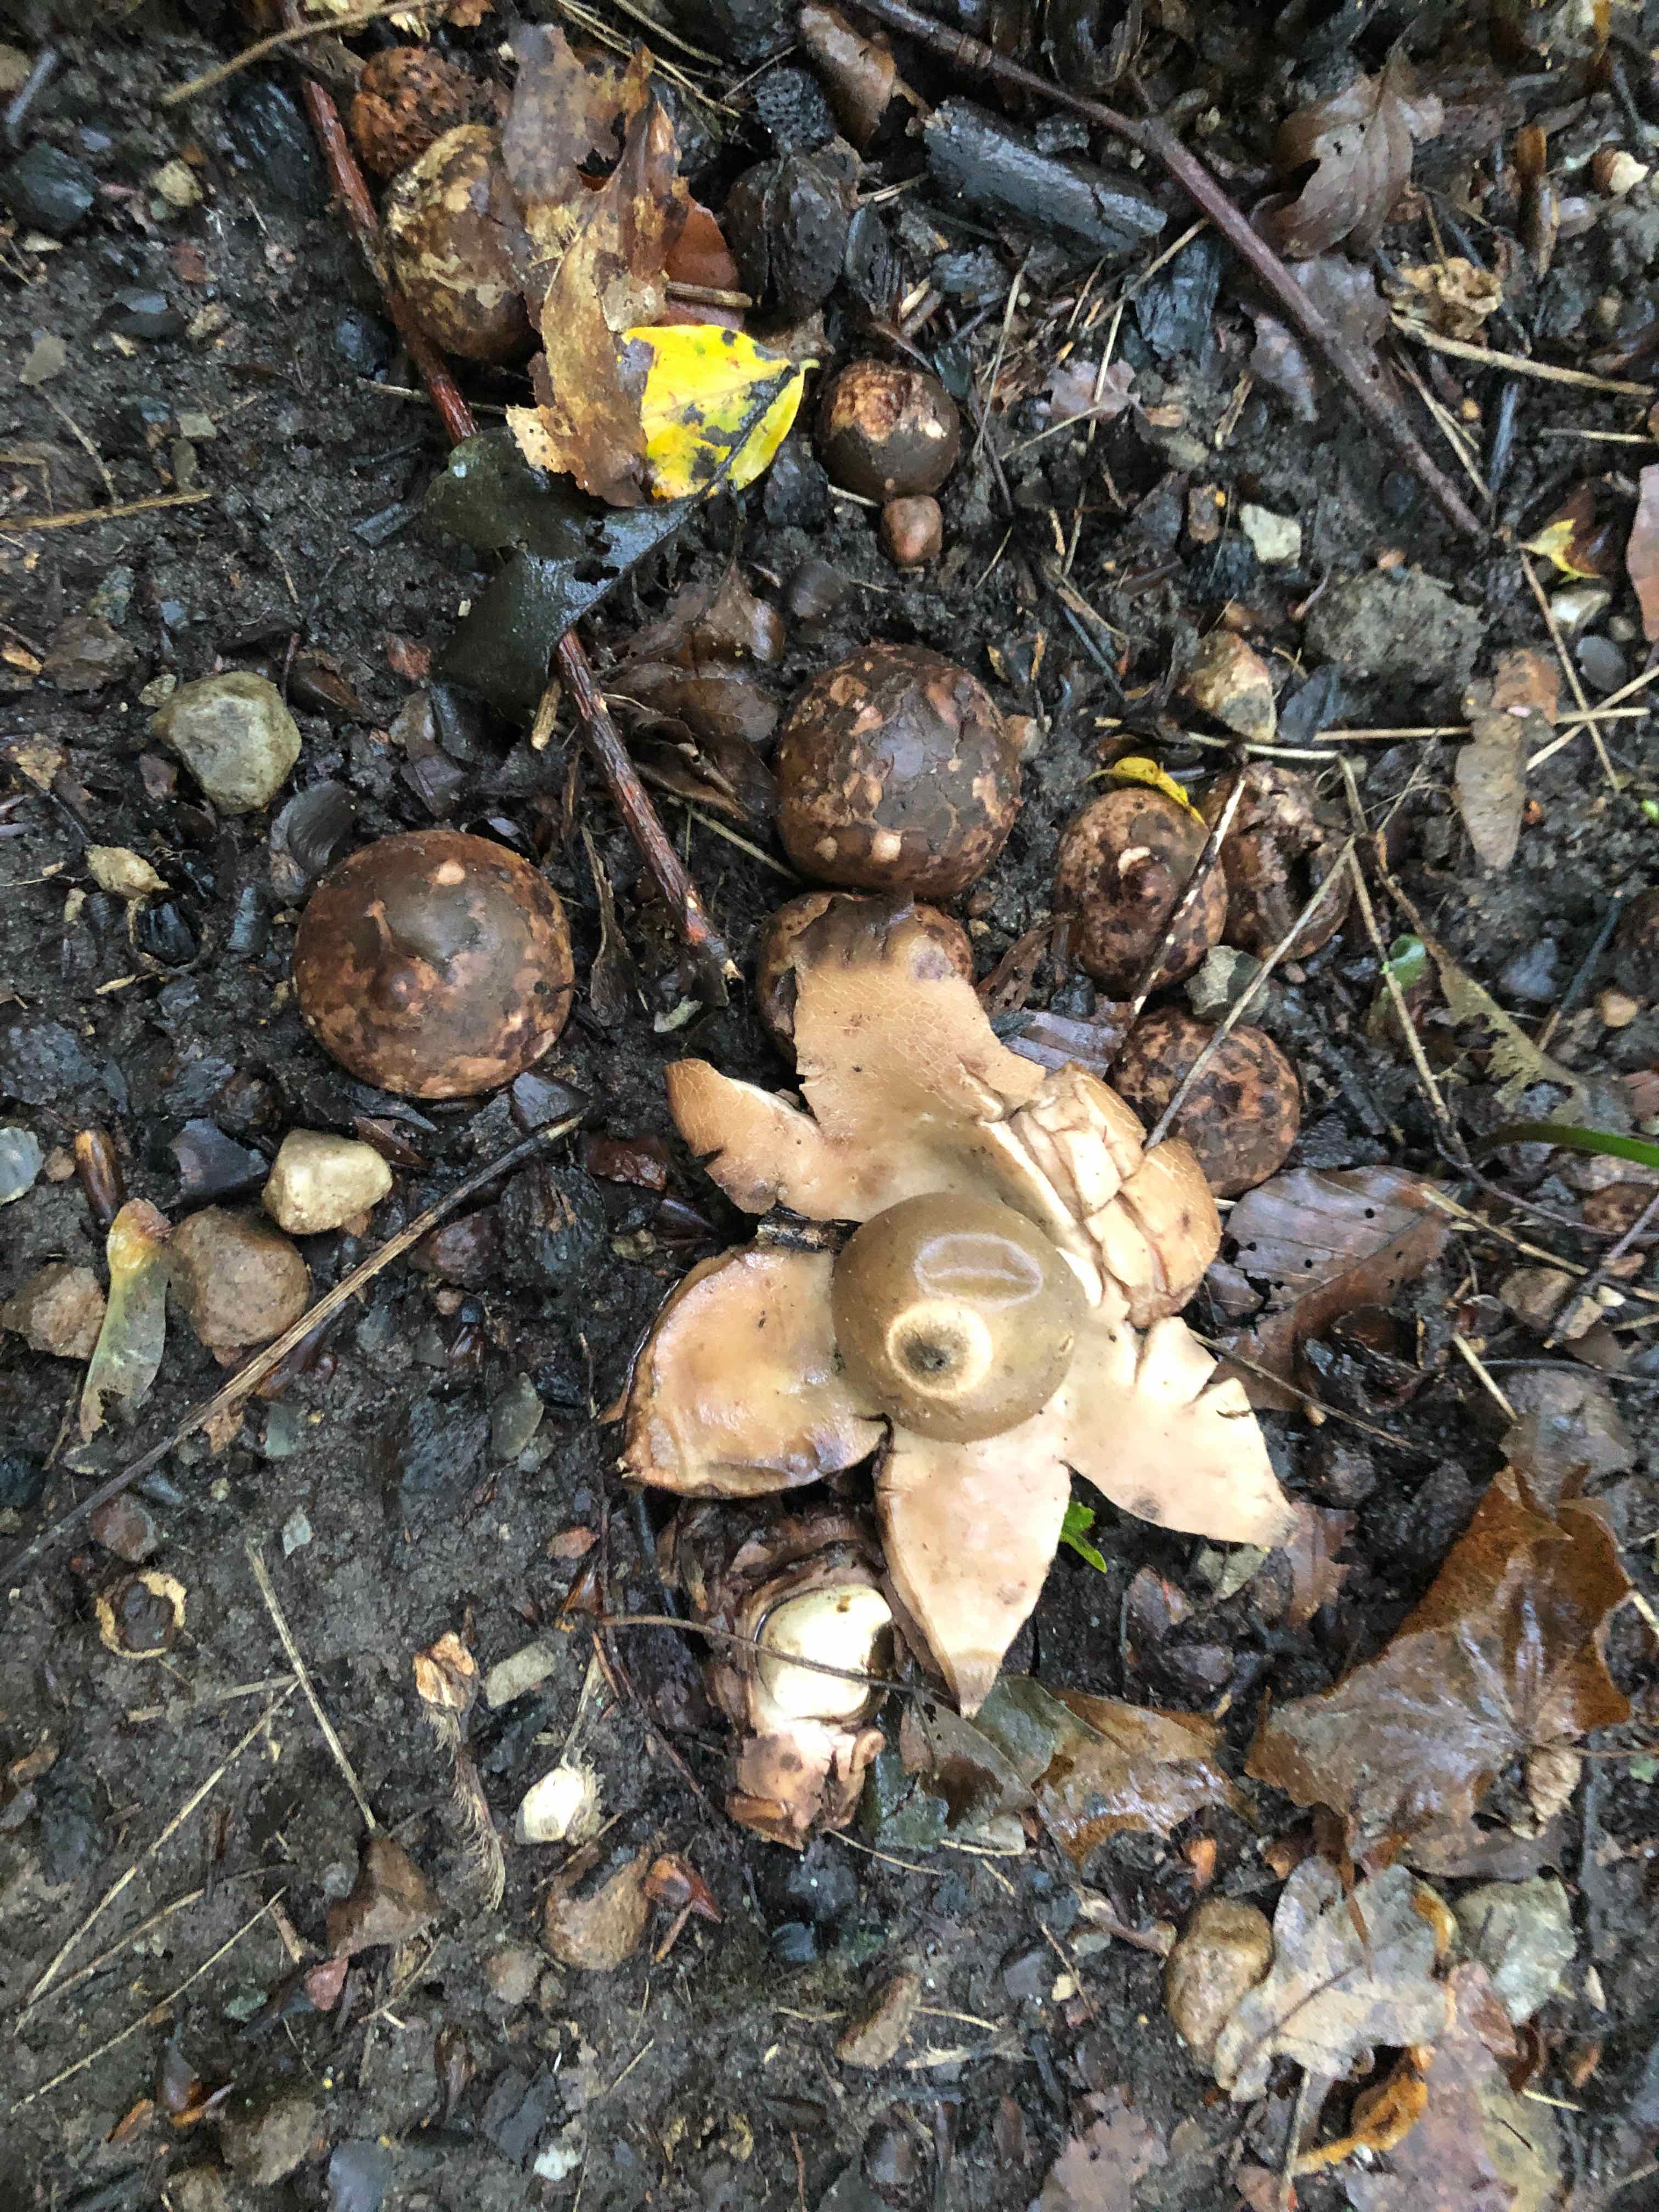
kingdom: Fungi
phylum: Basidiomycota
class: Agaricomycetes
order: Geastrales
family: Geastraceae
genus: Geastrum
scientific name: Geastrum michelianum
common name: kødet stjernebold
